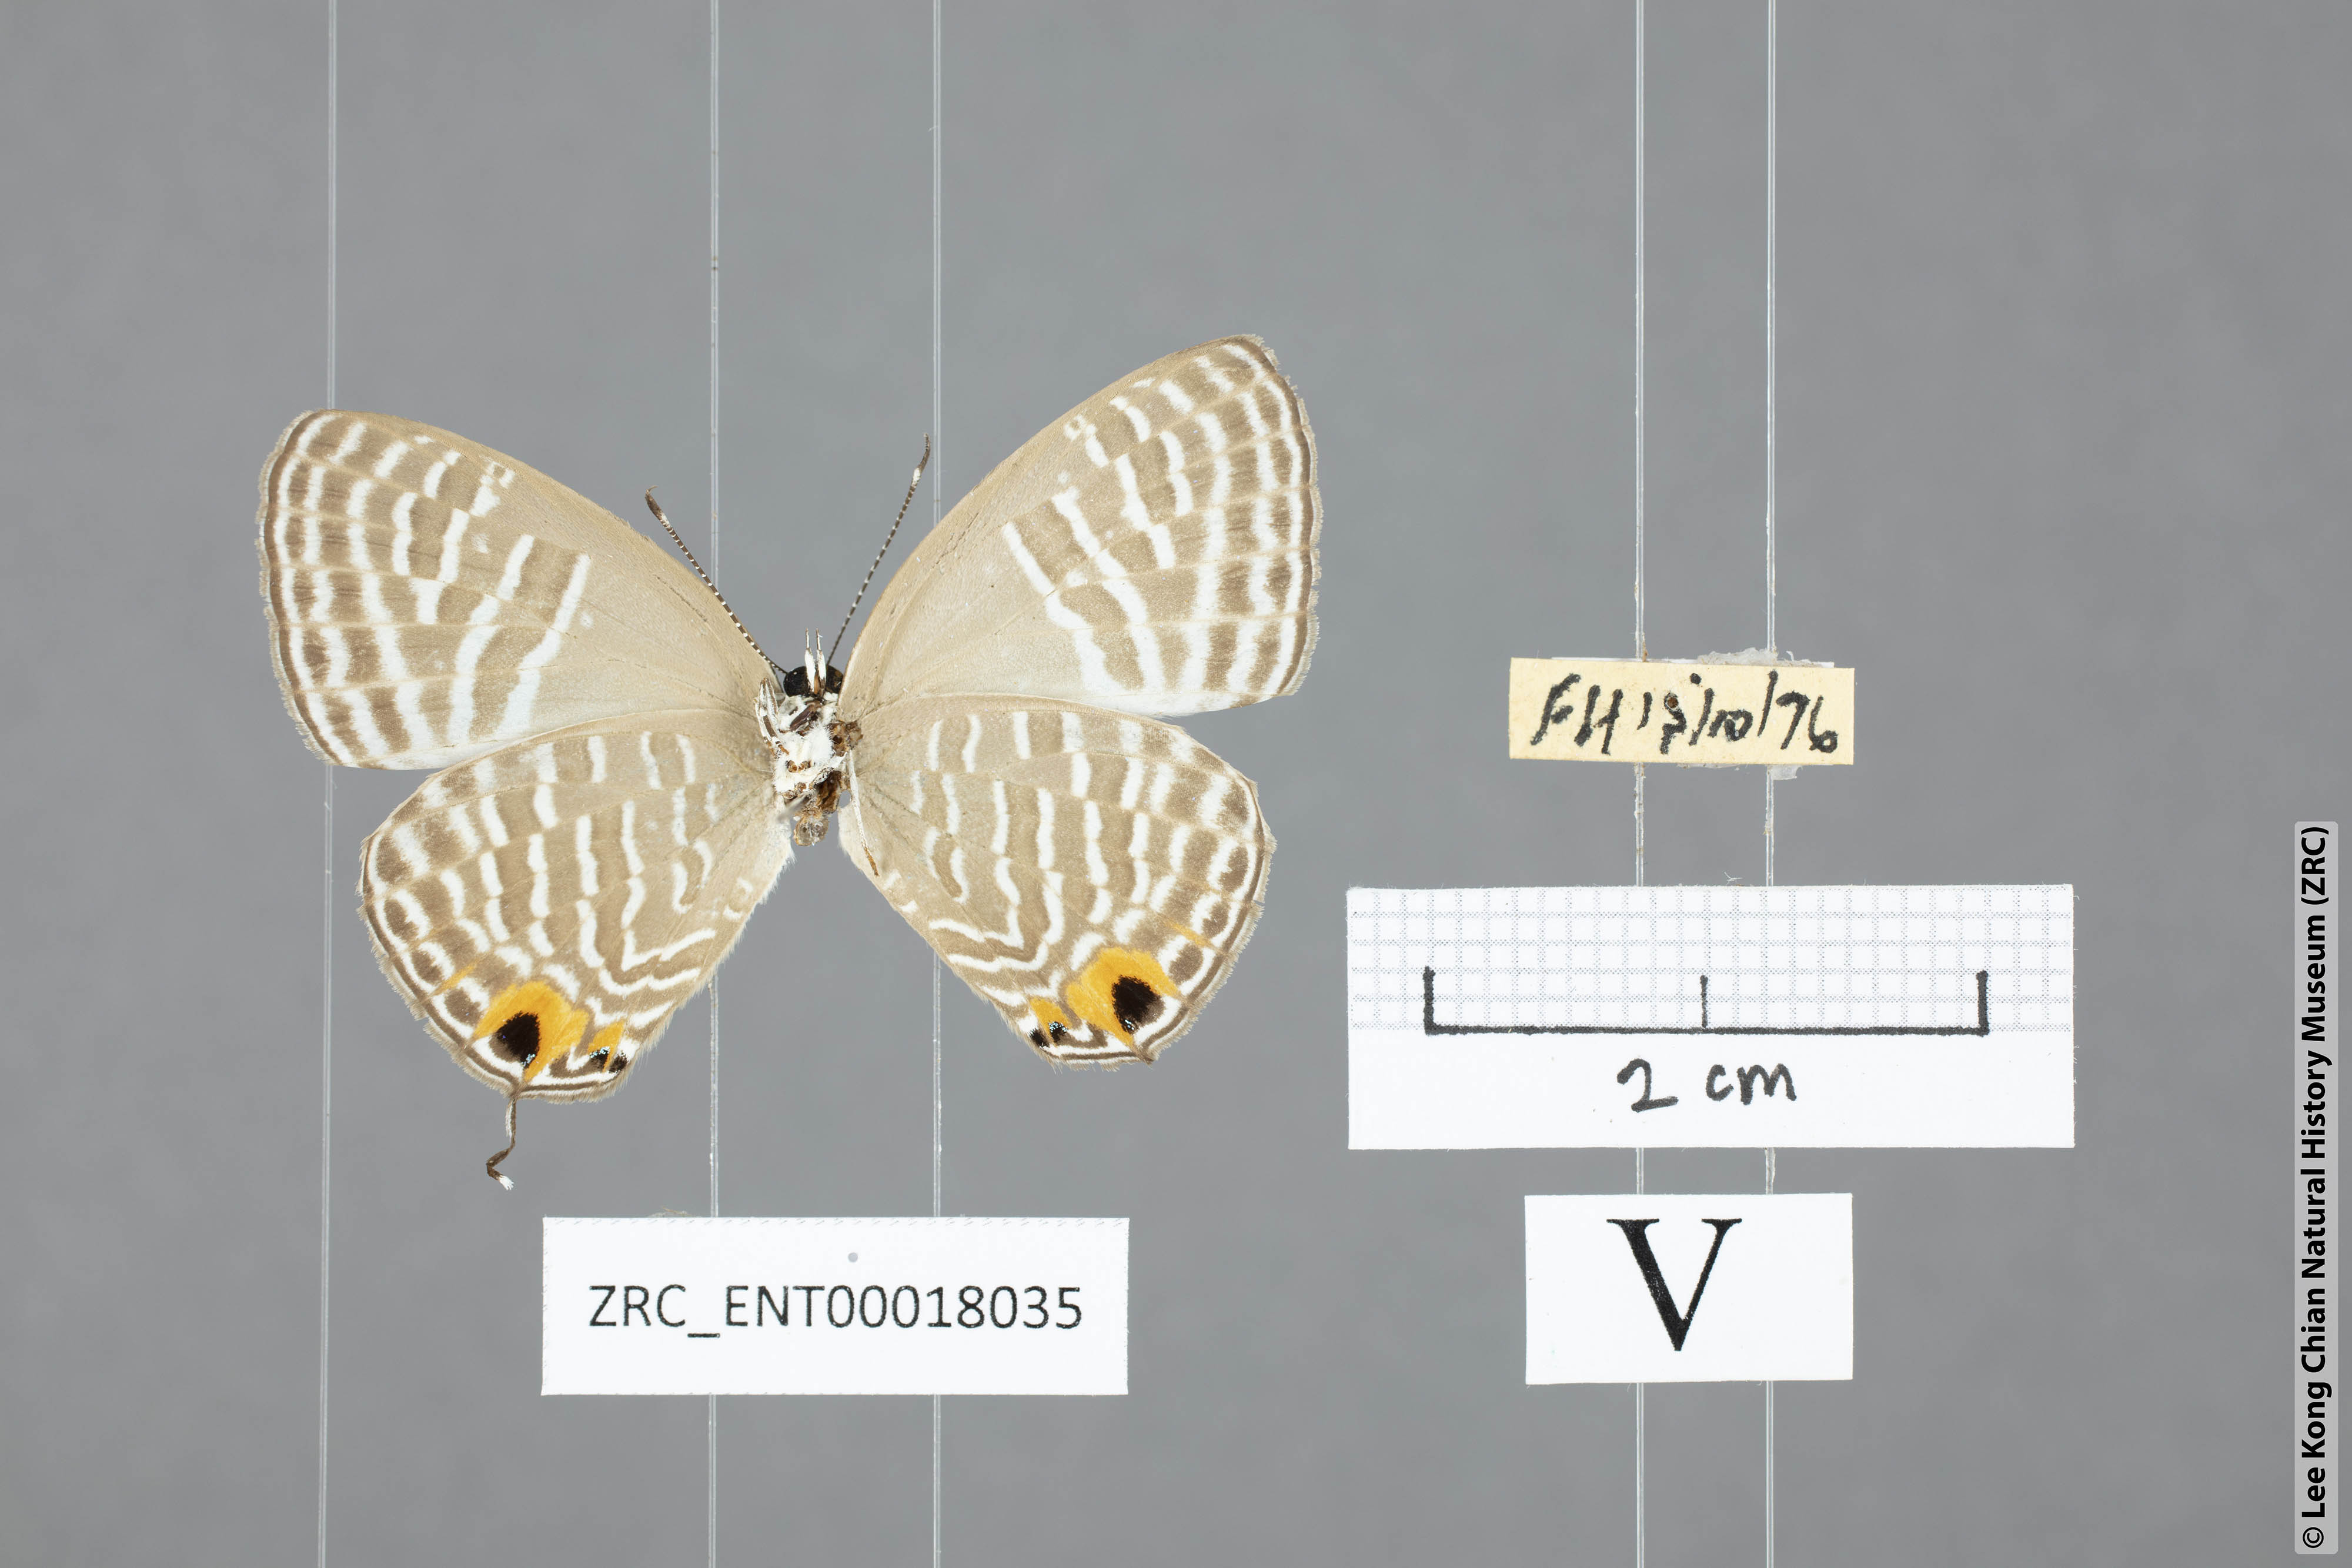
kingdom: Animalia
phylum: Arthropoda
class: Insecta
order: Lepidoptera
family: Lycaenidae
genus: Jamides
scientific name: Jamides alecto
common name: Metallic cerulean
